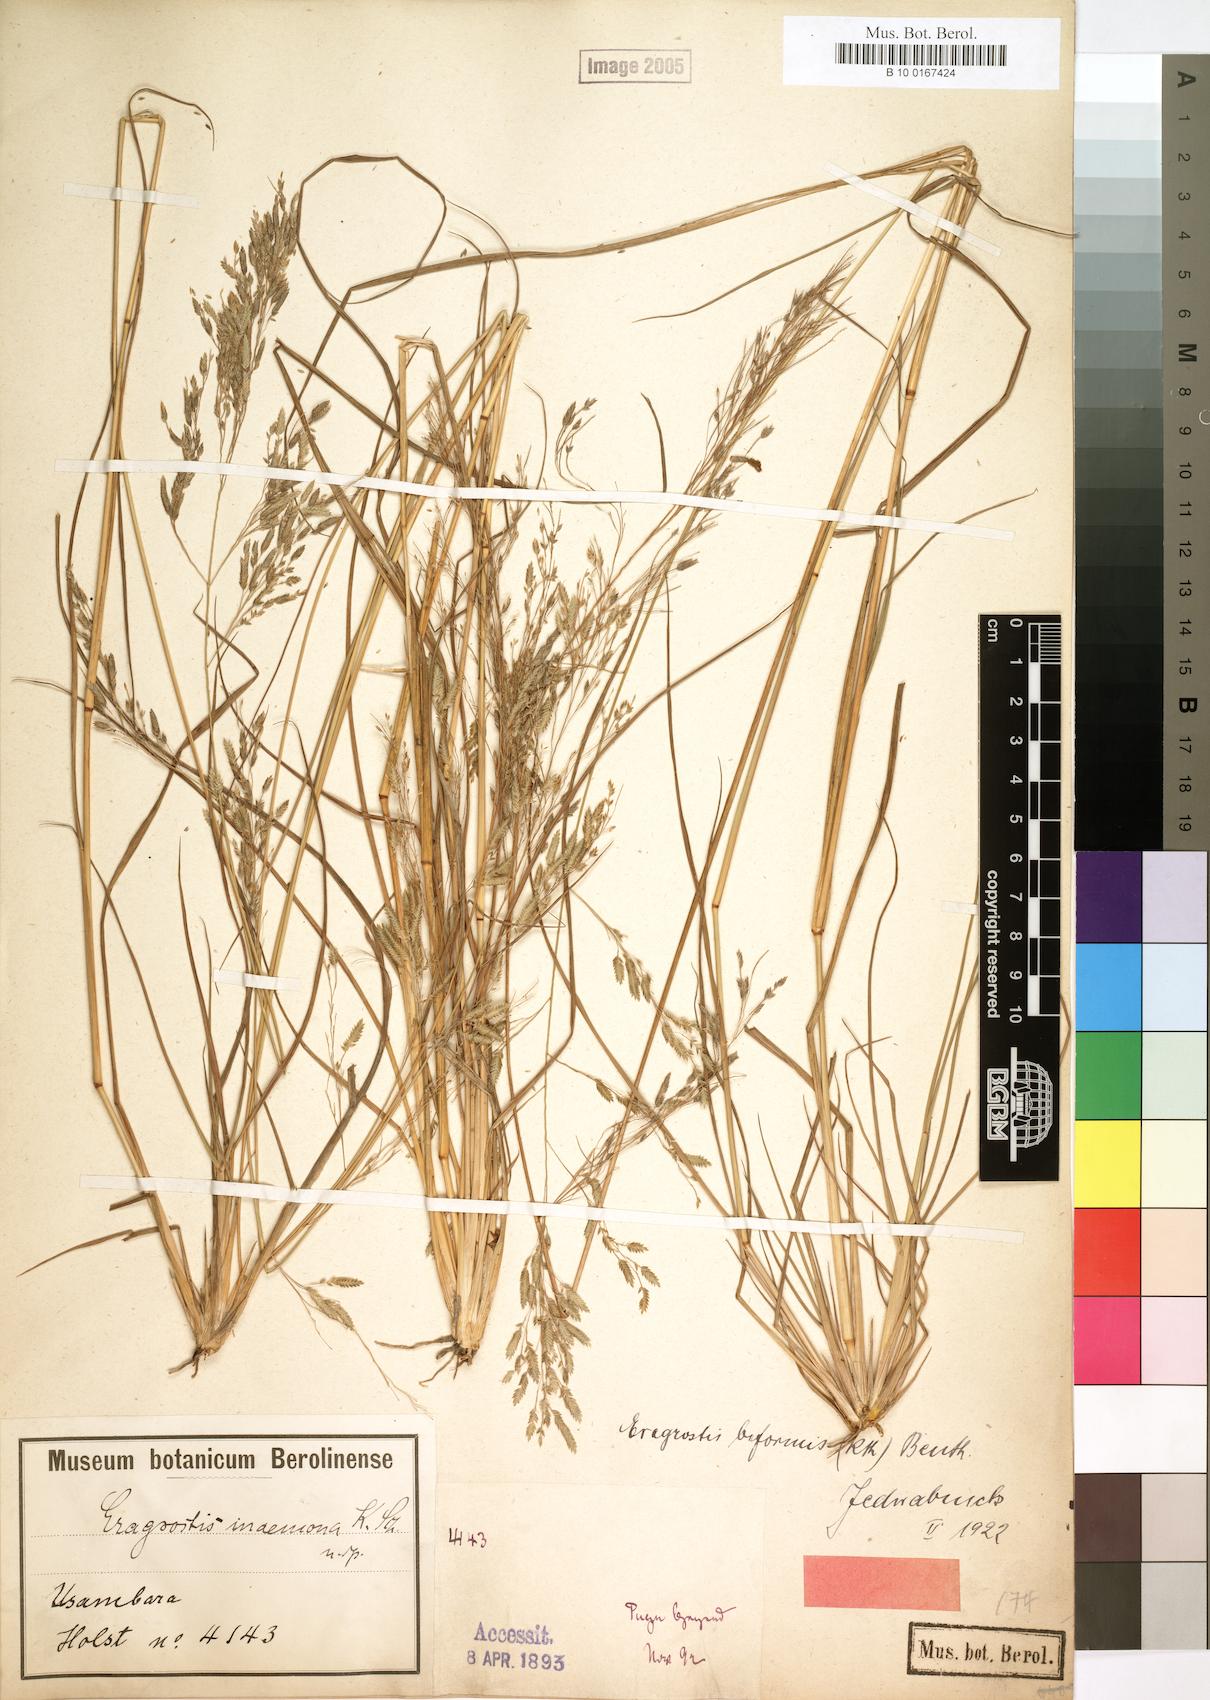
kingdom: Plantae
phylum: Tracheophyta
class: Liliopsida
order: Poales
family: Poaceae
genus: Eragrostis
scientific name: Eragrostis inamoena
